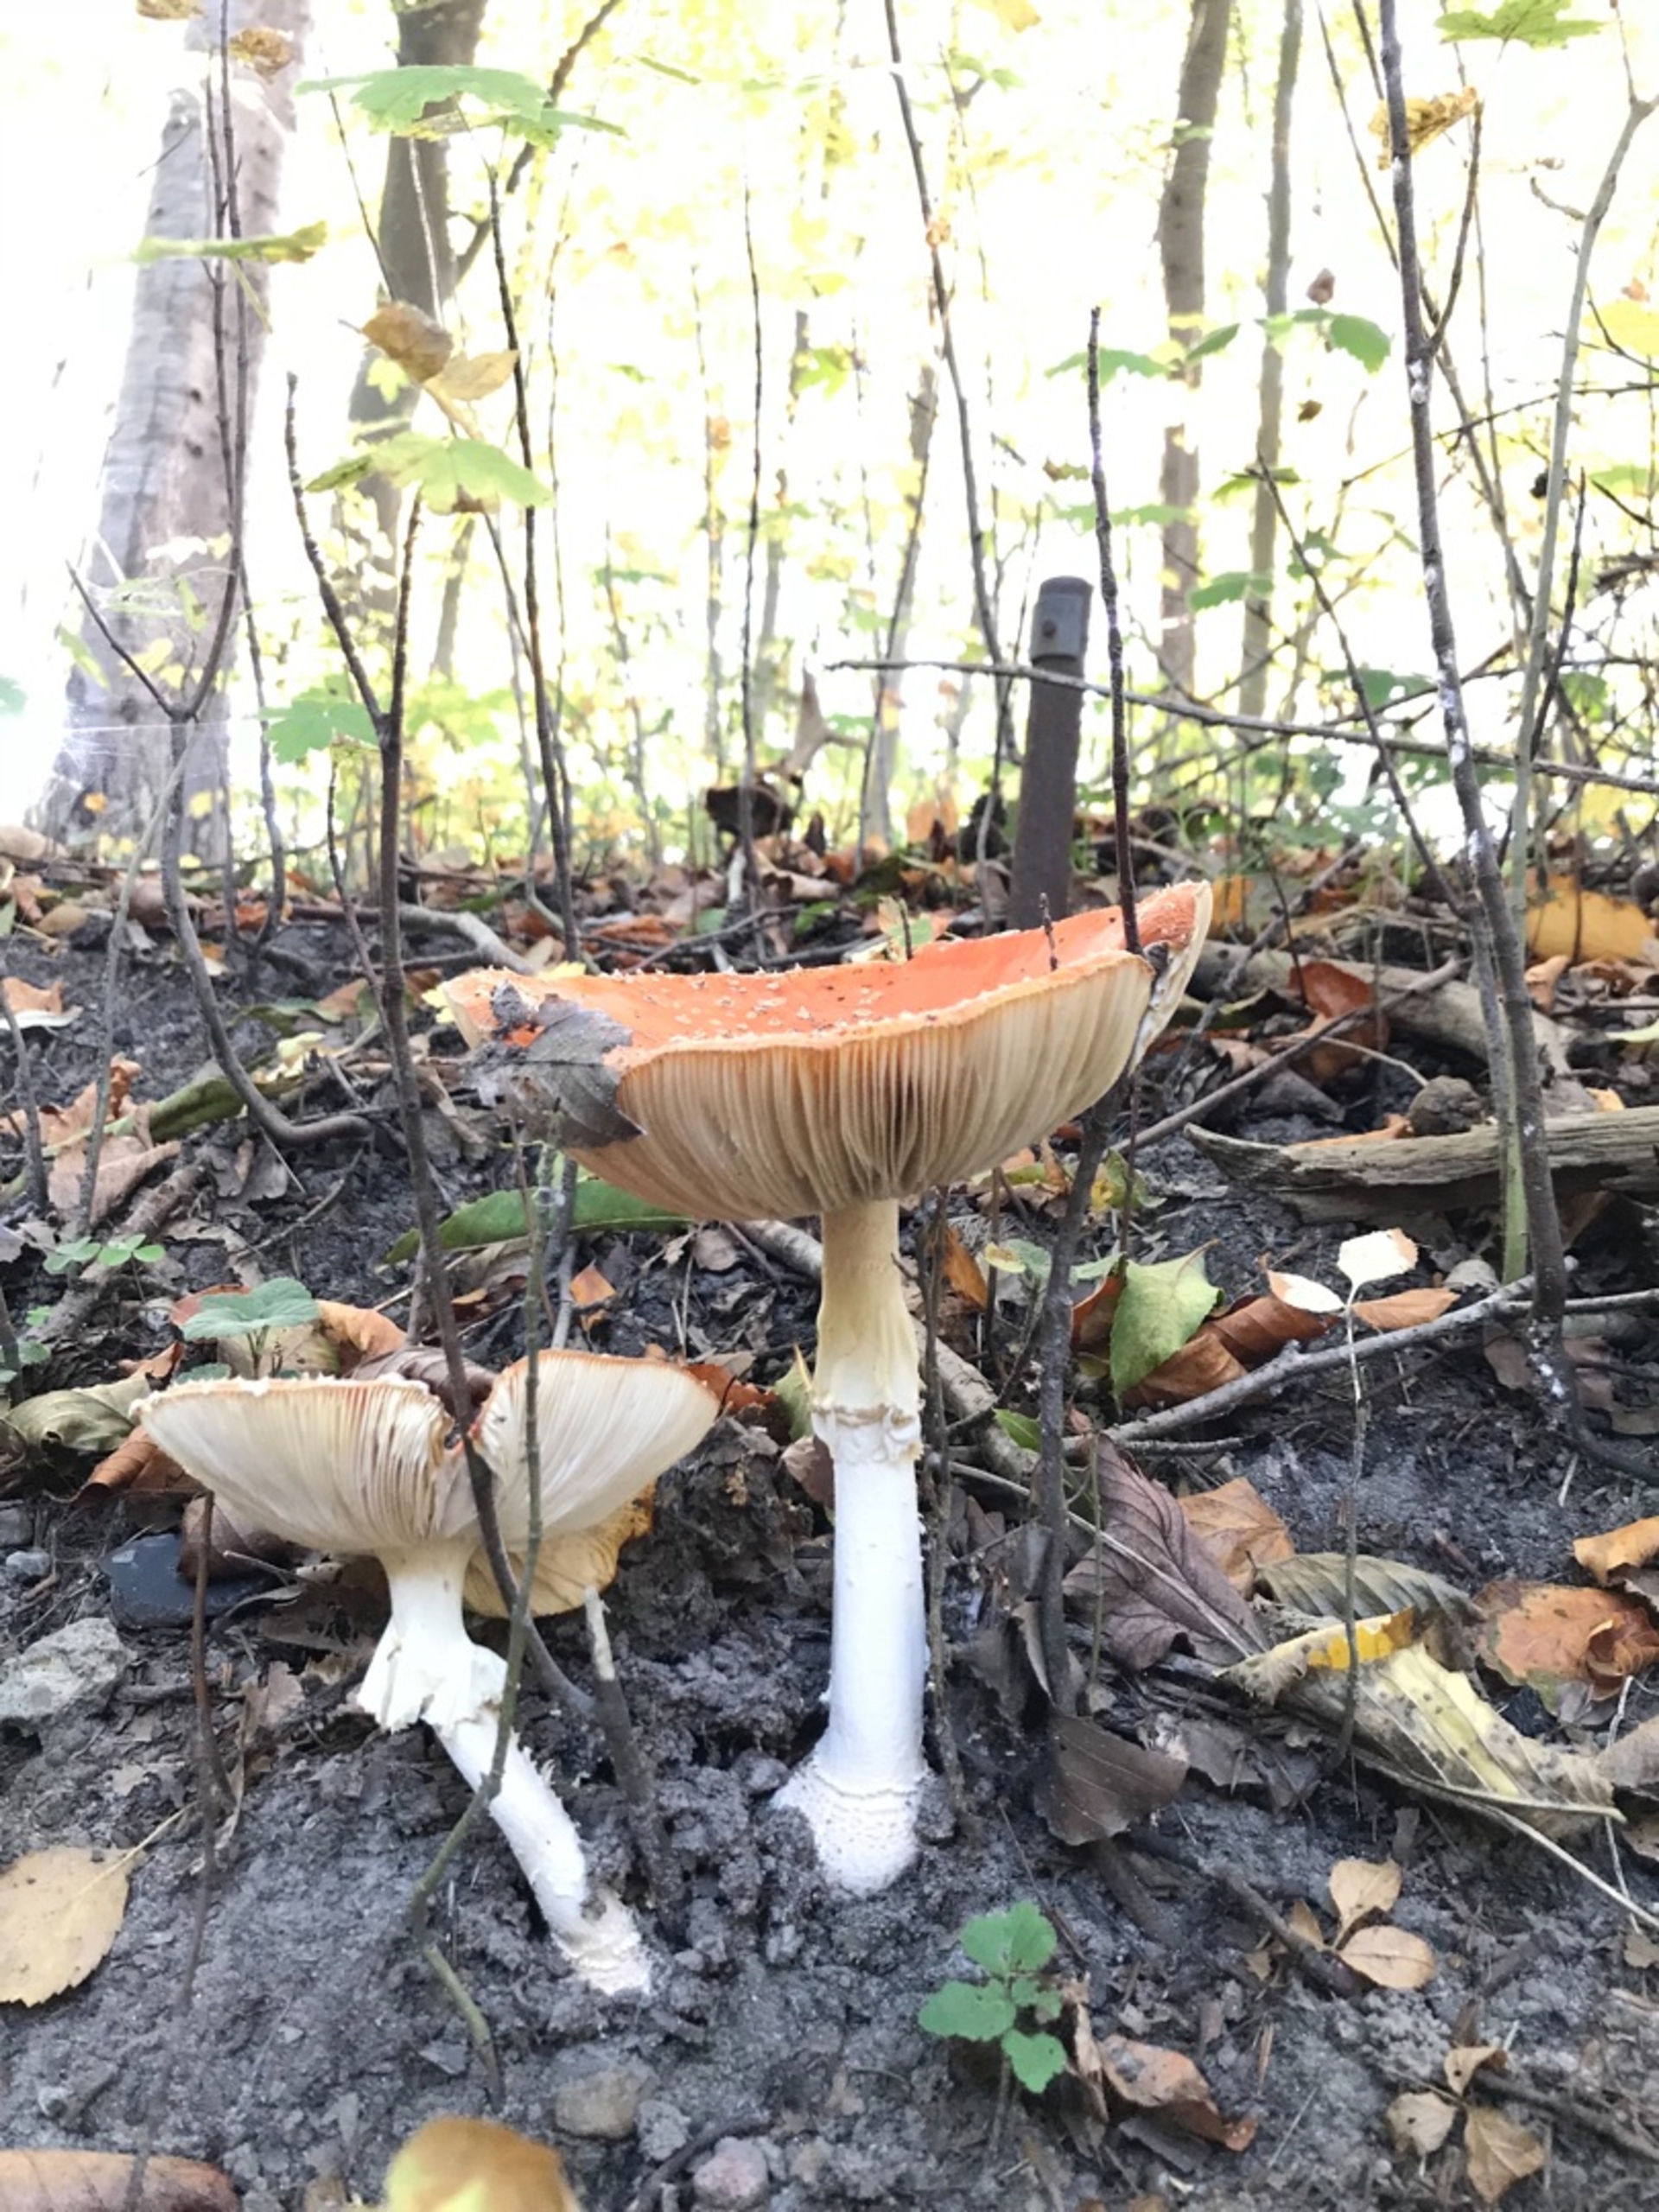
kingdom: Fungi
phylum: Basidiomycota
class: Agaricomycetes
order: Agaricales
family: Amanitaceae
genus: Amanita
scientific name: Amanita muscaria
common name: Rød fluesvamp
